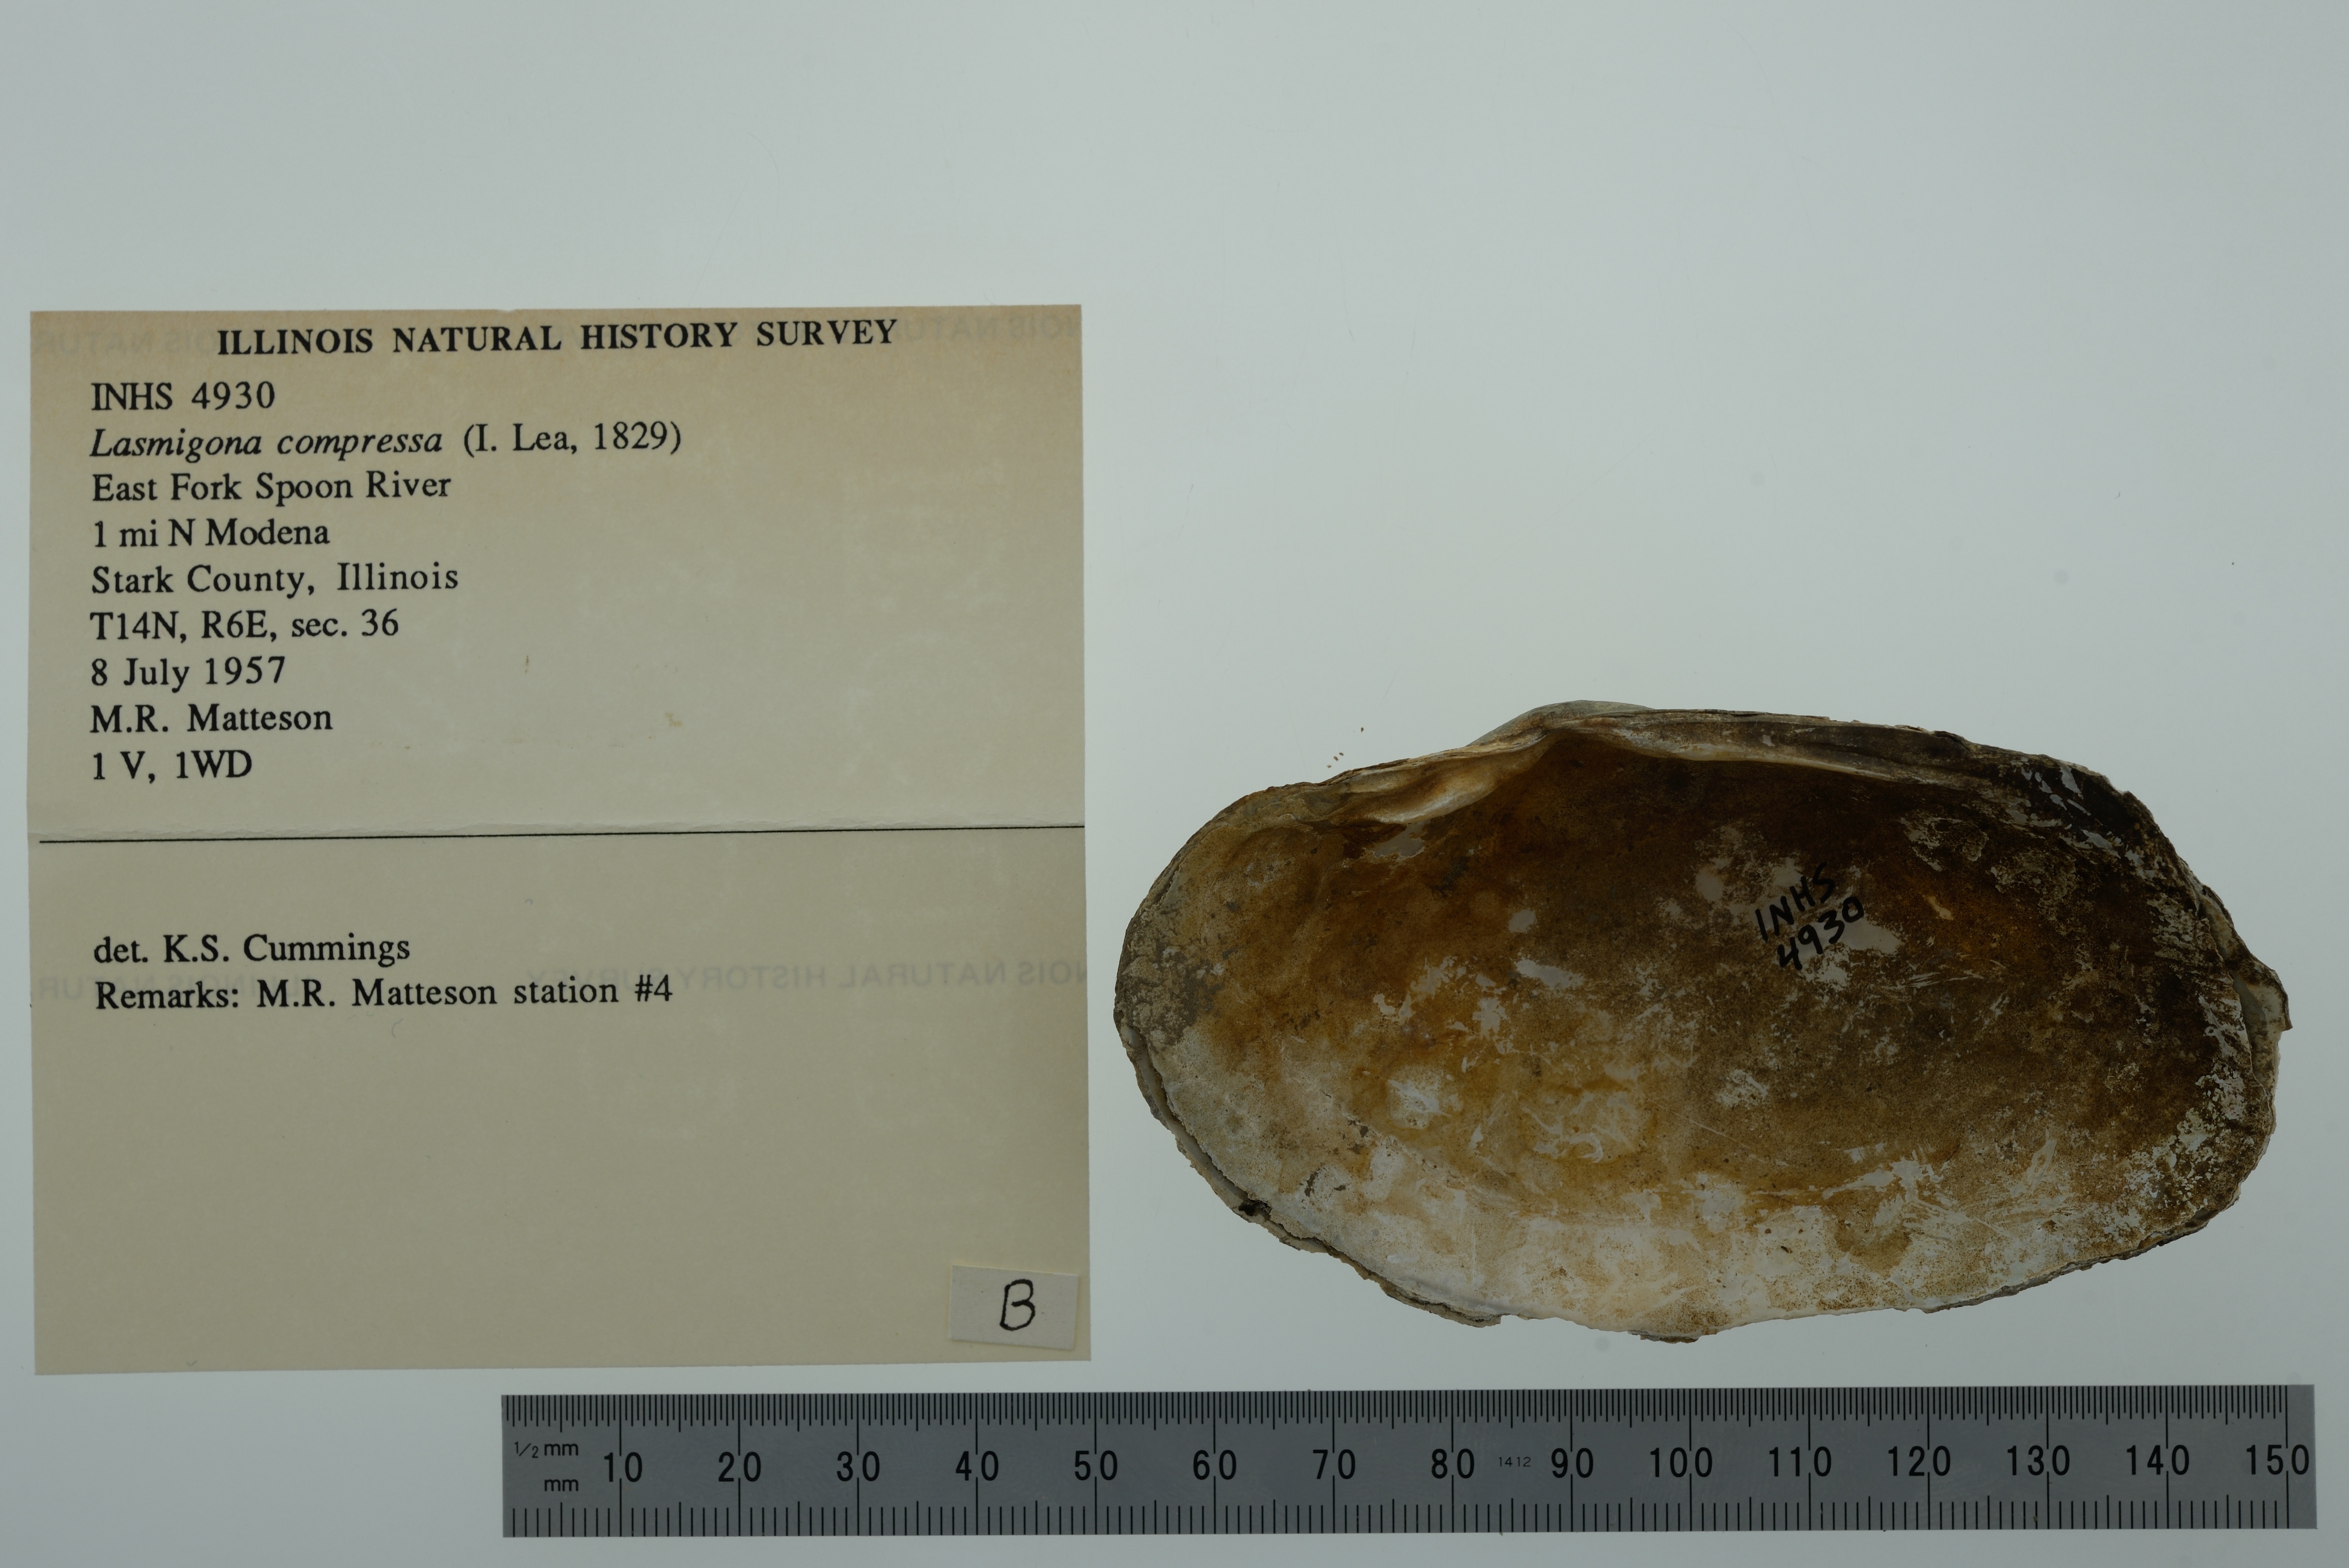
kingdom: Animalia
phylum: Mollusca
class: Bivalvia
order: Unionida
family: Unionidae
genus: Lasmigona
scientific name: Lasmigona compressa
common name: Creek heelsplitter
